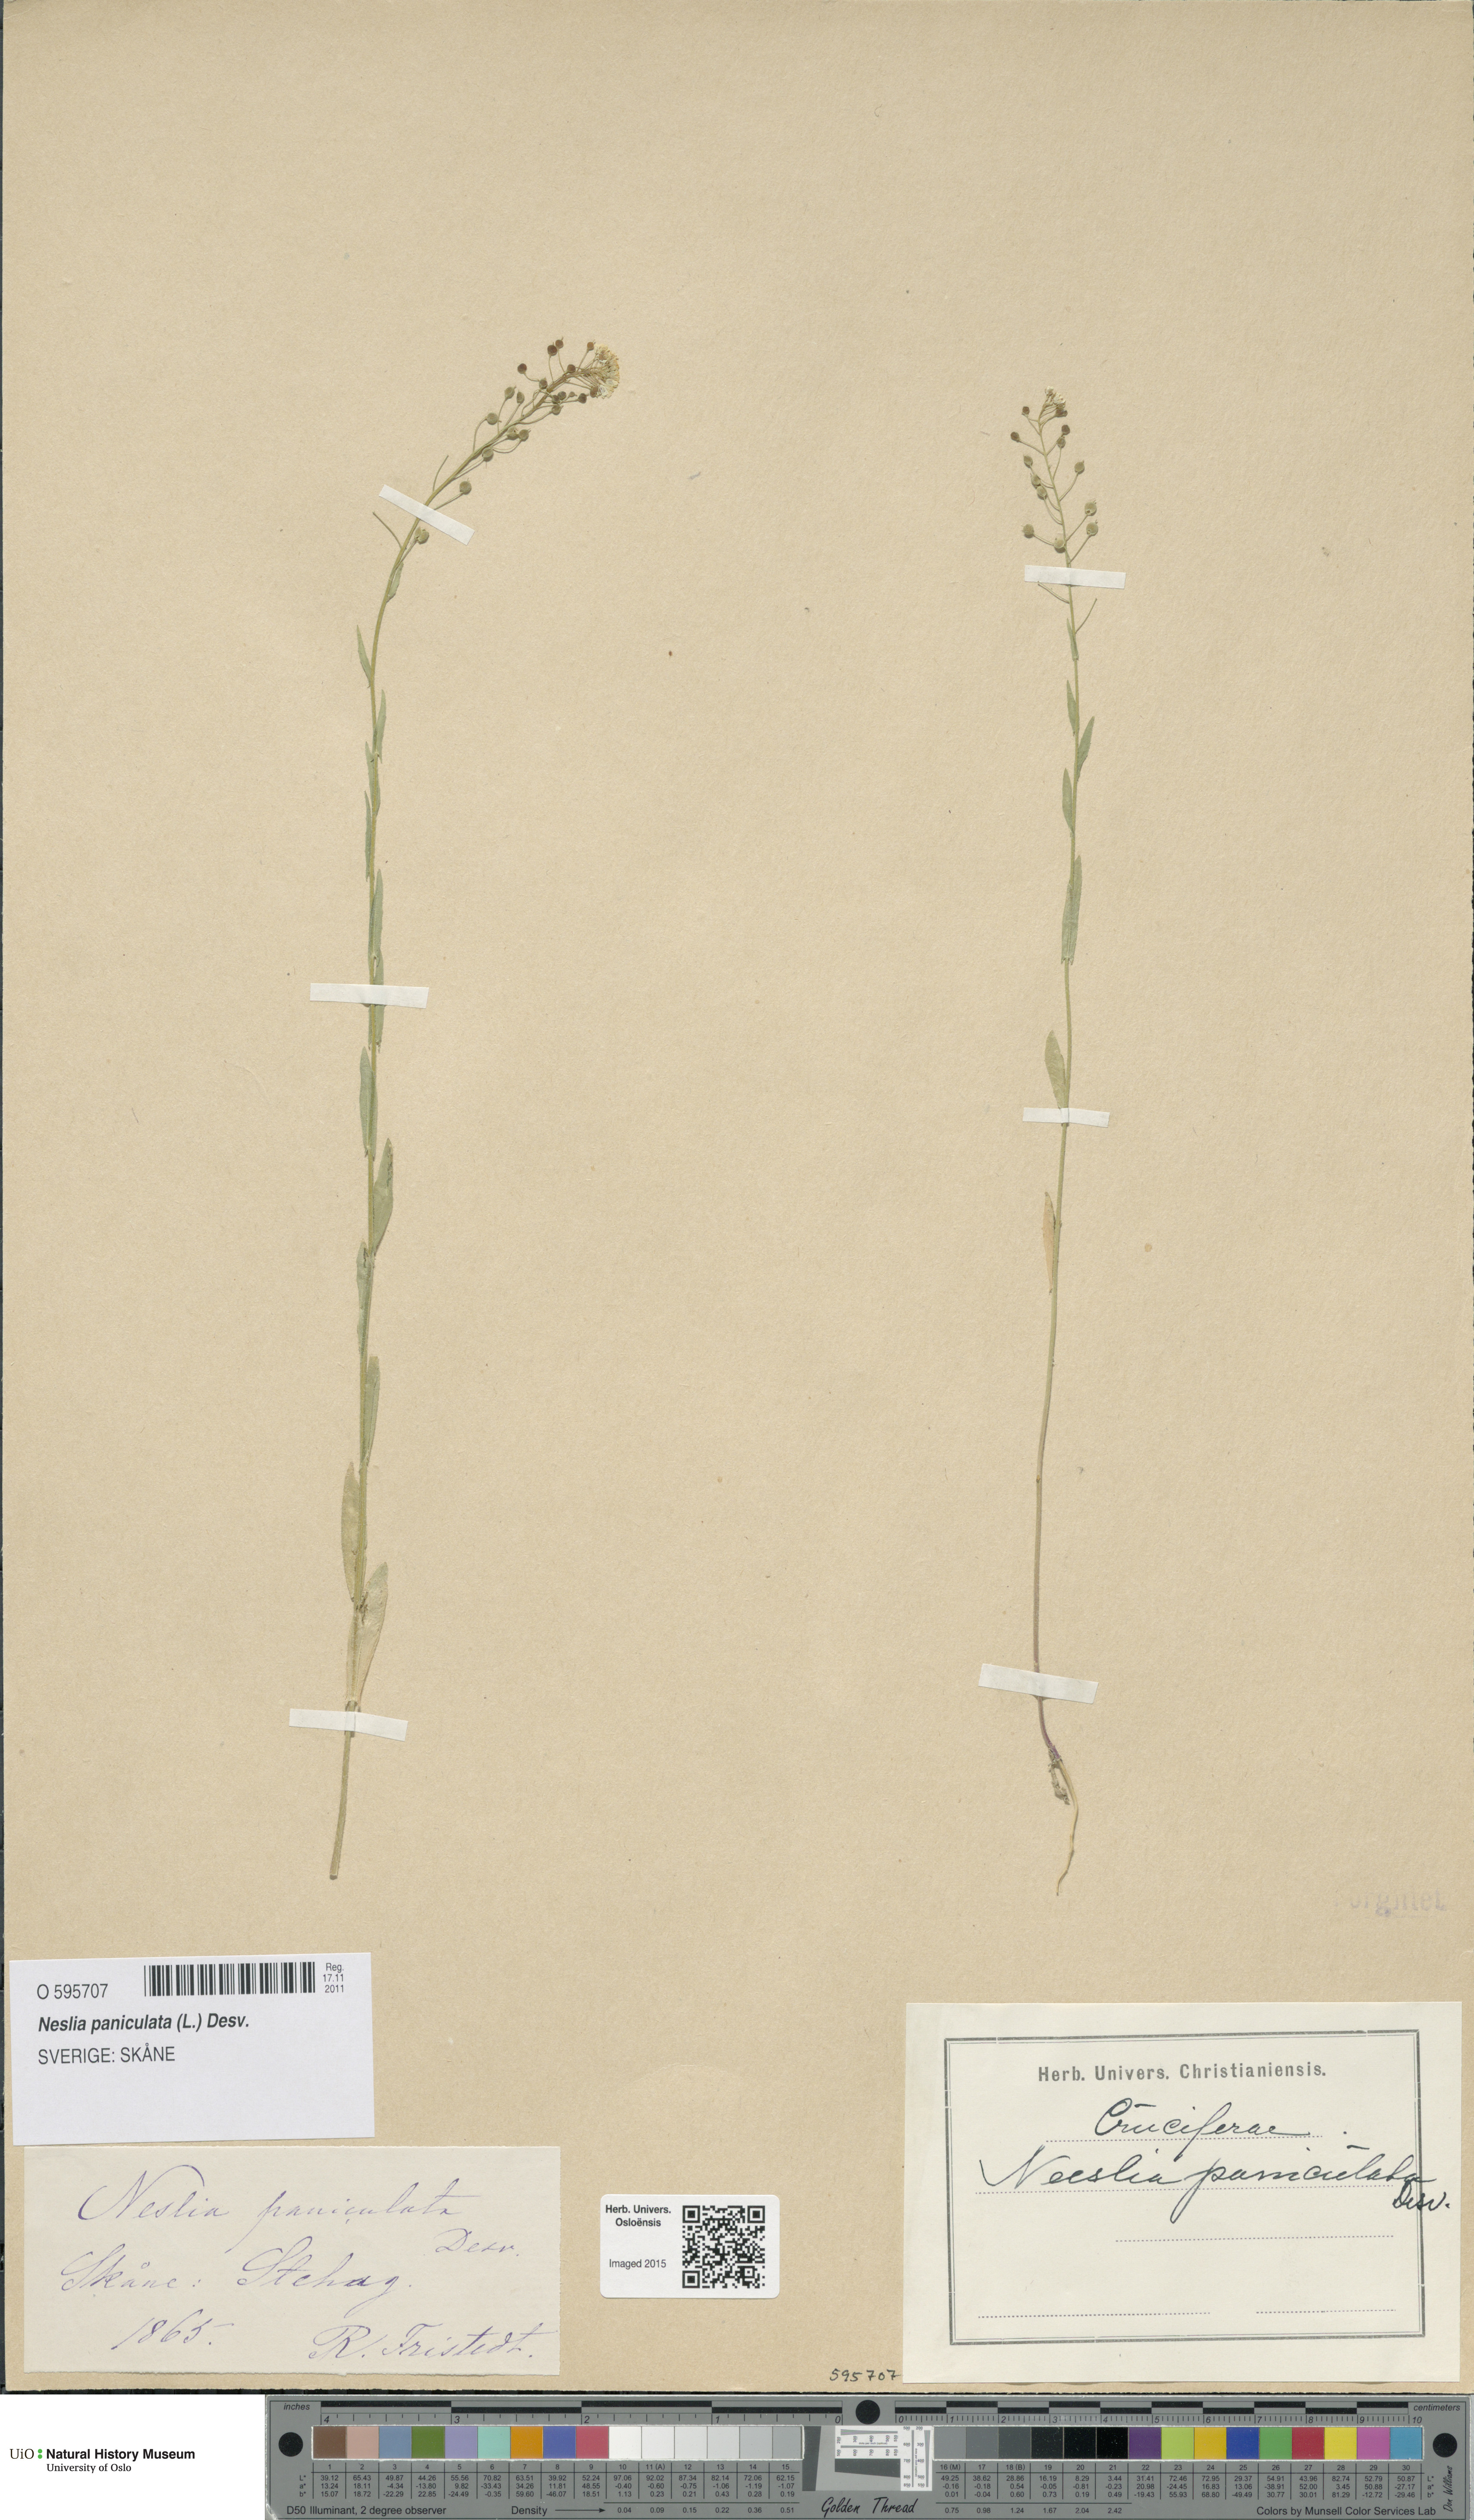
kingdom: Plantae
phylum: Tracheophyta
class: Magnoliopsida
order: Brassicales
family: Brassicaceae
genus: Neslia
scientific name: Neslia paniculata
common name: Ball mustard
